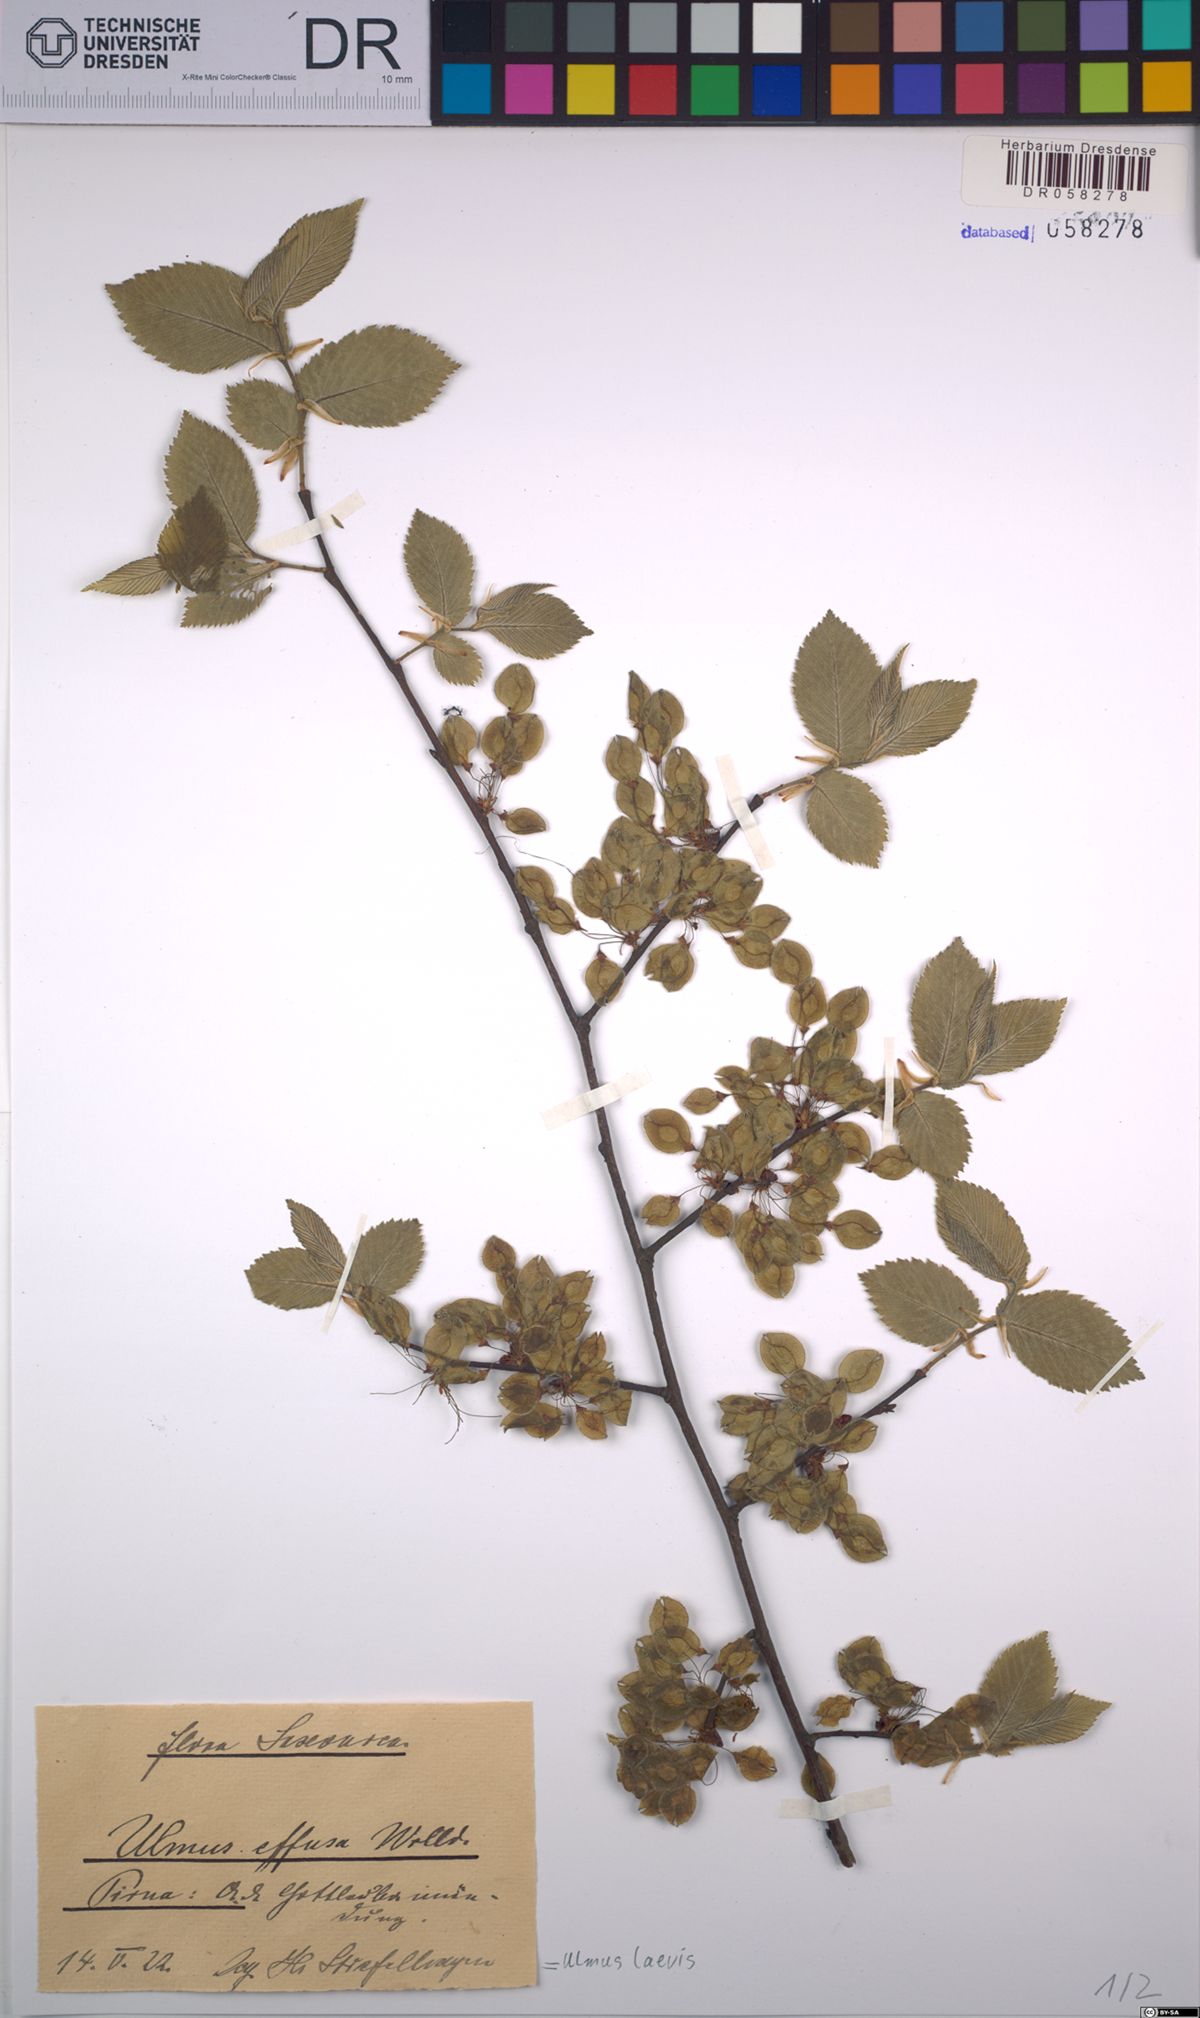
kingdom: Plantae
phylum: Tracheophyta
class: Magnoliopsida
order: Rosales
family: Ulmaceae
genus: Ulmus
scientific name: Ulmus laevis
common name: European white-elm
